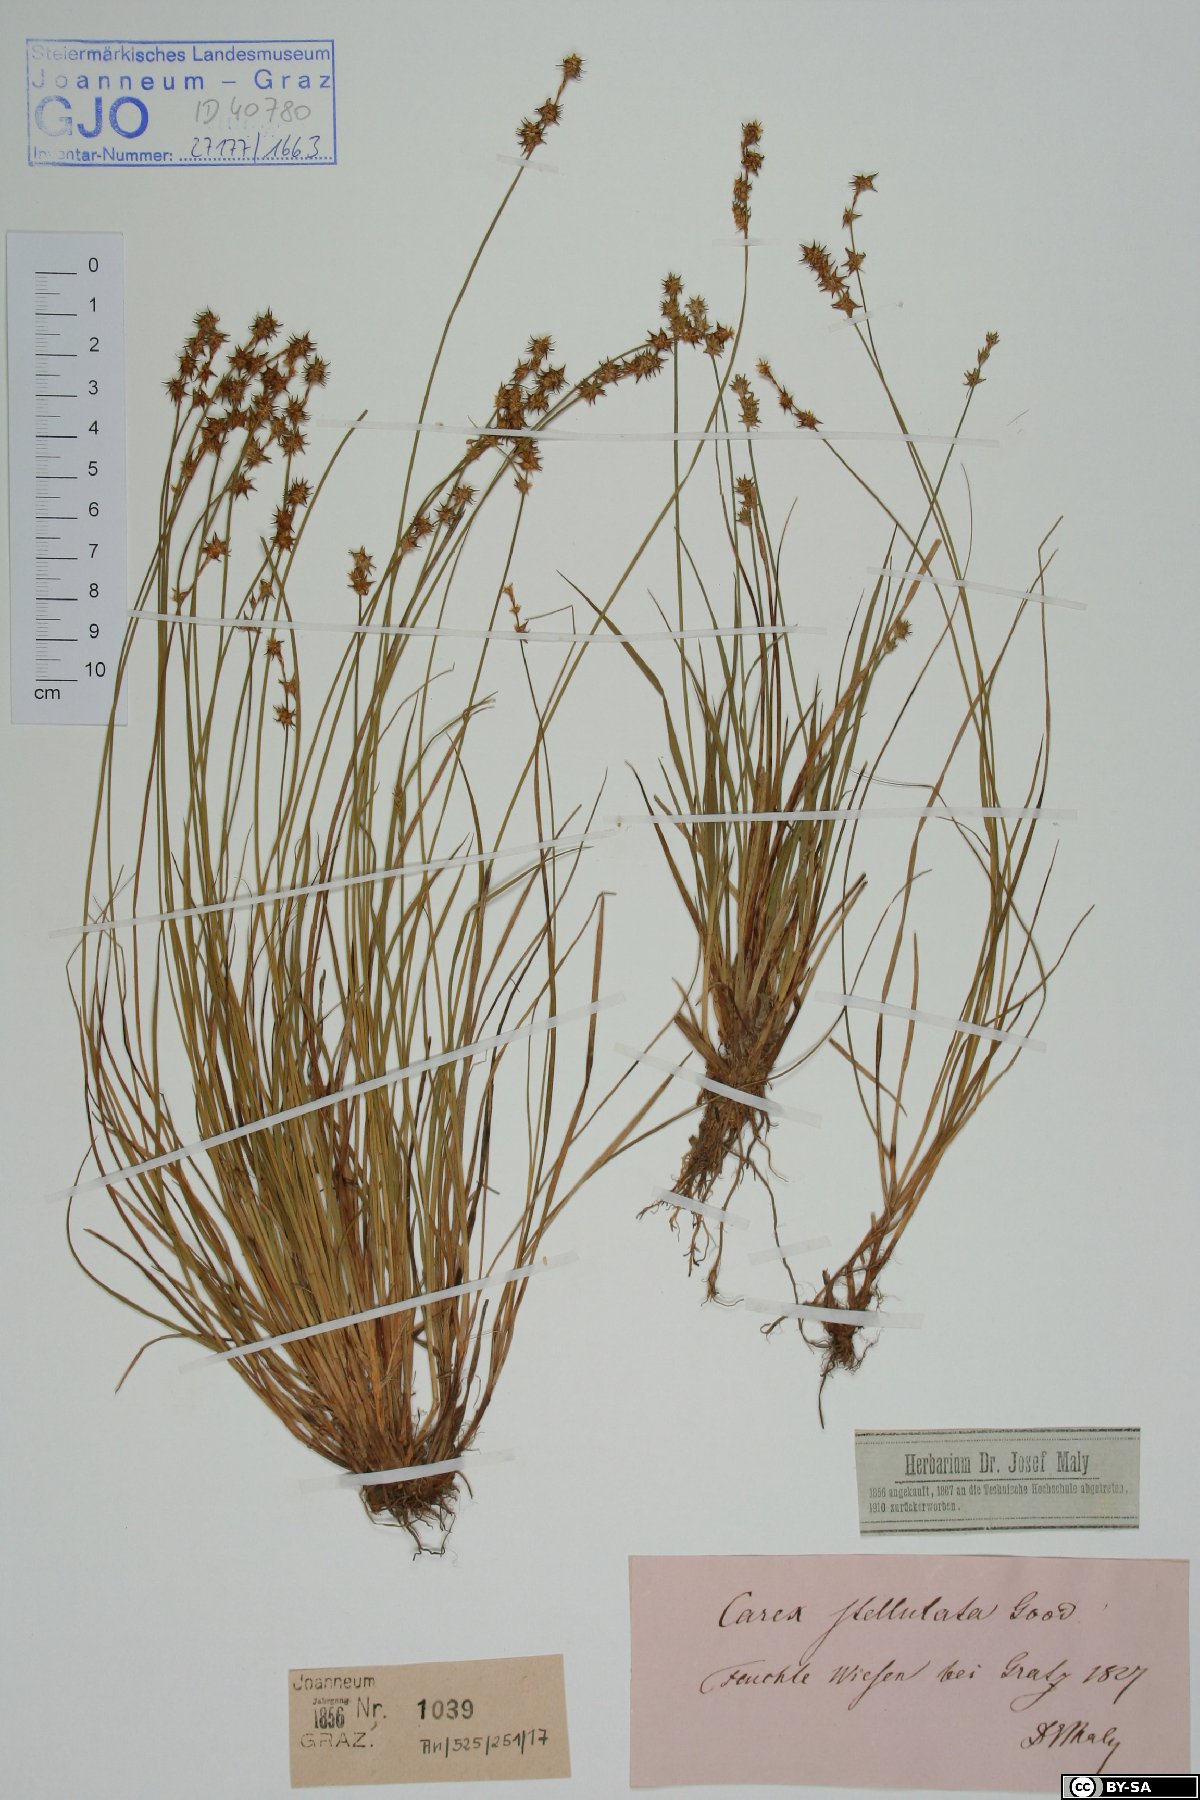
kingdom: Plantae
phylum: Tracheophyta
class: Liliopsida
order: Poales
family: Cyperaceae
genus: Carex
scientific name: Carex echinata
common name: Star sedge
